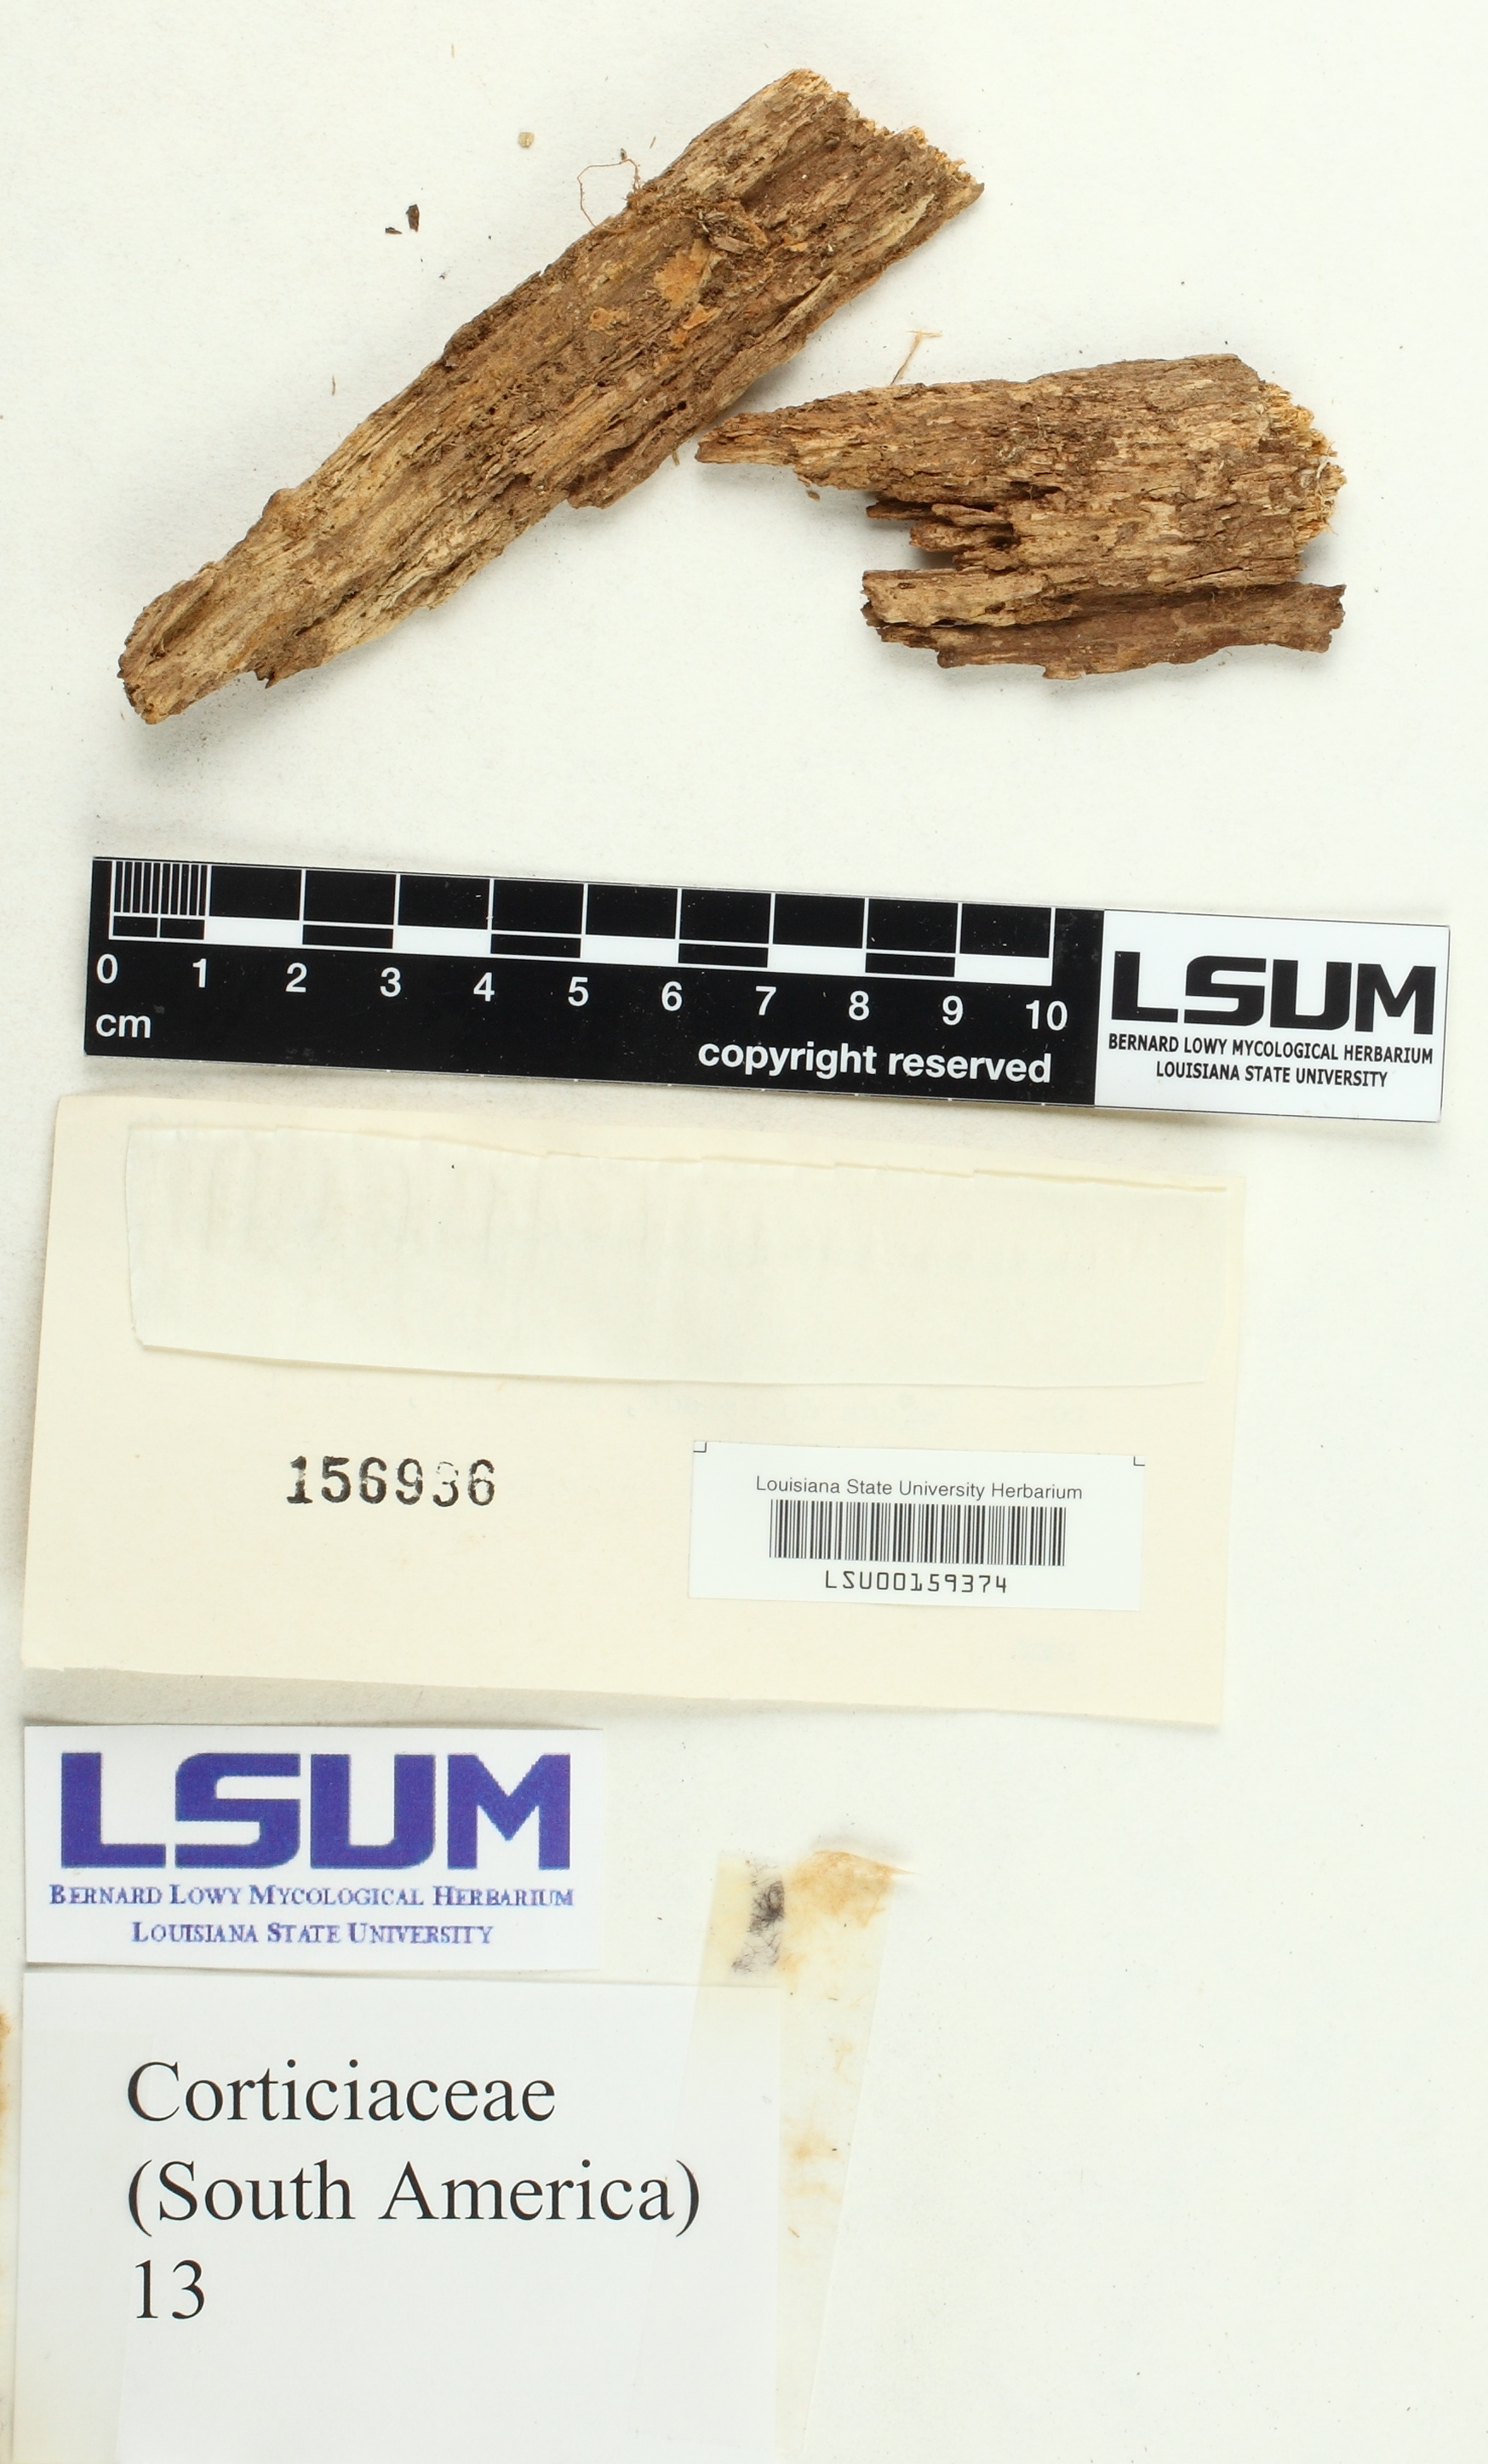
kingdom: Fungi
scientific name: Fungi
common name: Fungi
